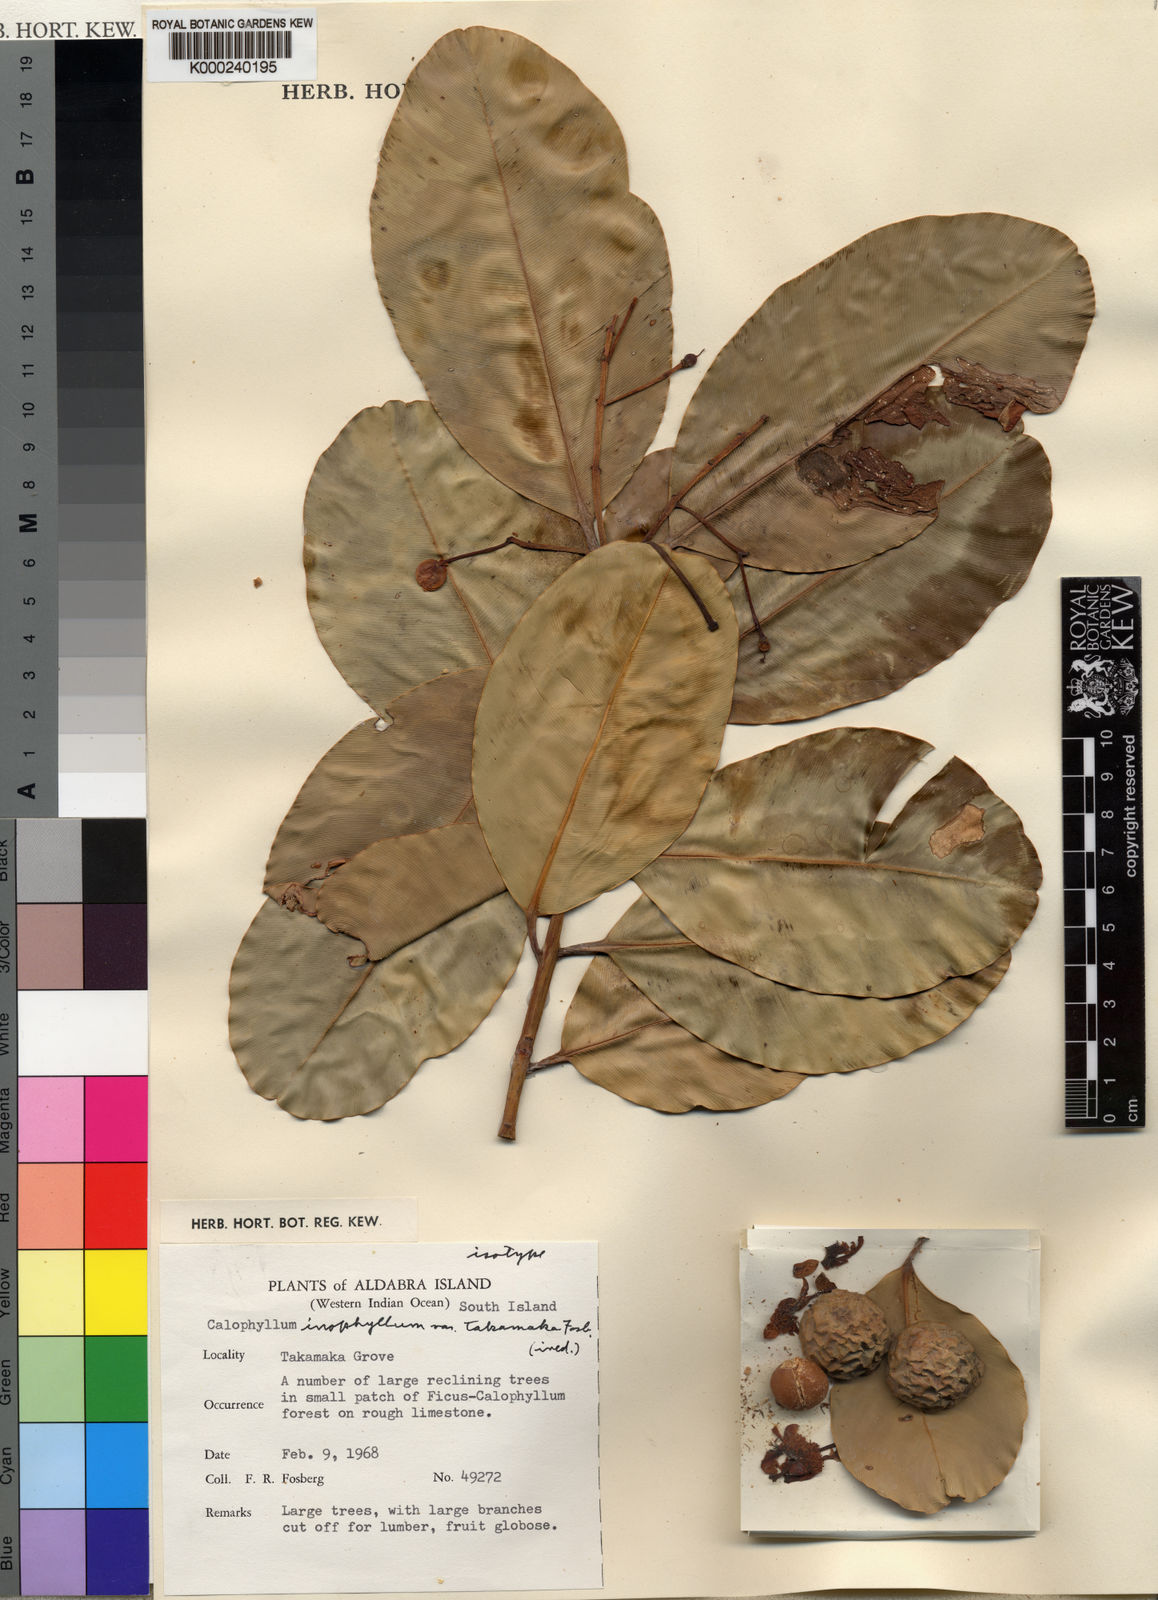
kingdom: Plantae
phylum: Tracheophyta
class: Magnoliopsida
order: Malpighiales
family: Calophyllaceae
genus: Calophyllum
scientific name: Calophyllum inophyllum
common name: Alexandrian laurel
